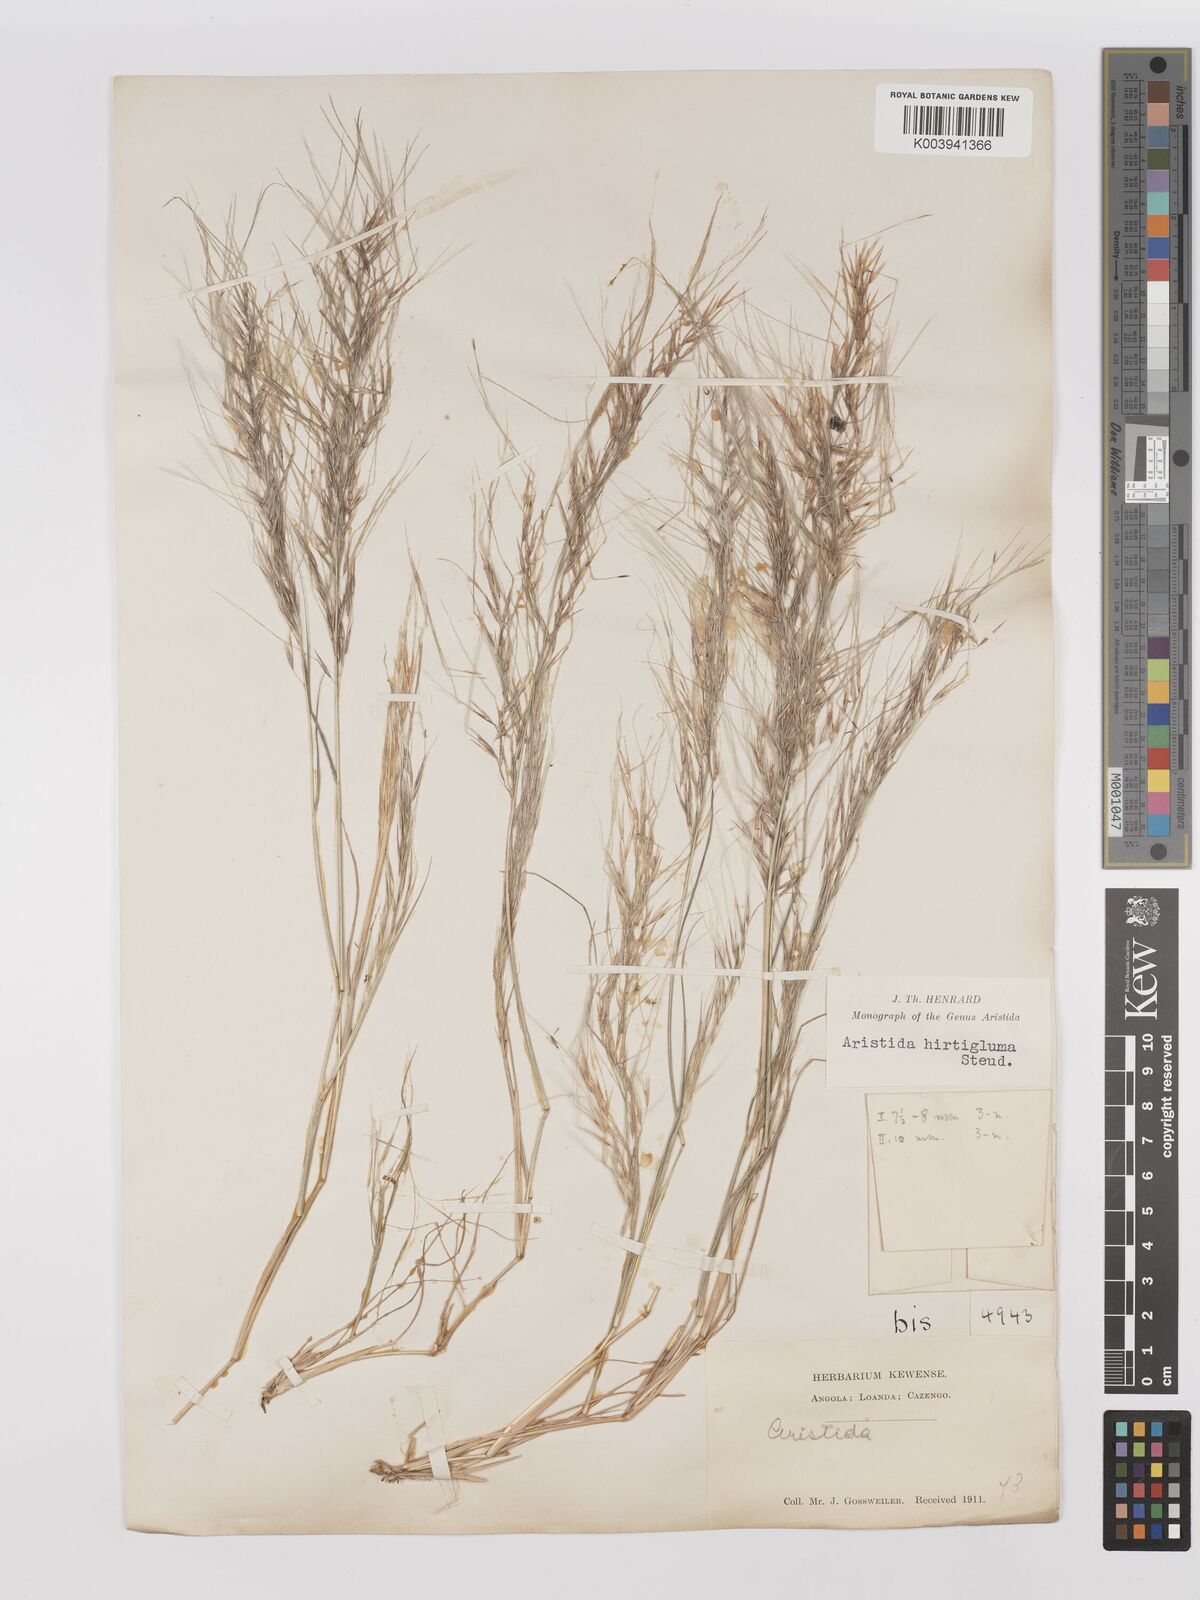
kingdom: Plantae
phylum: Tracheophyta
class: Liliopsida
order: Poales
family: Poaceae
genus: Stipagrostis
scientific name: Stipagrostis hirtigluma
